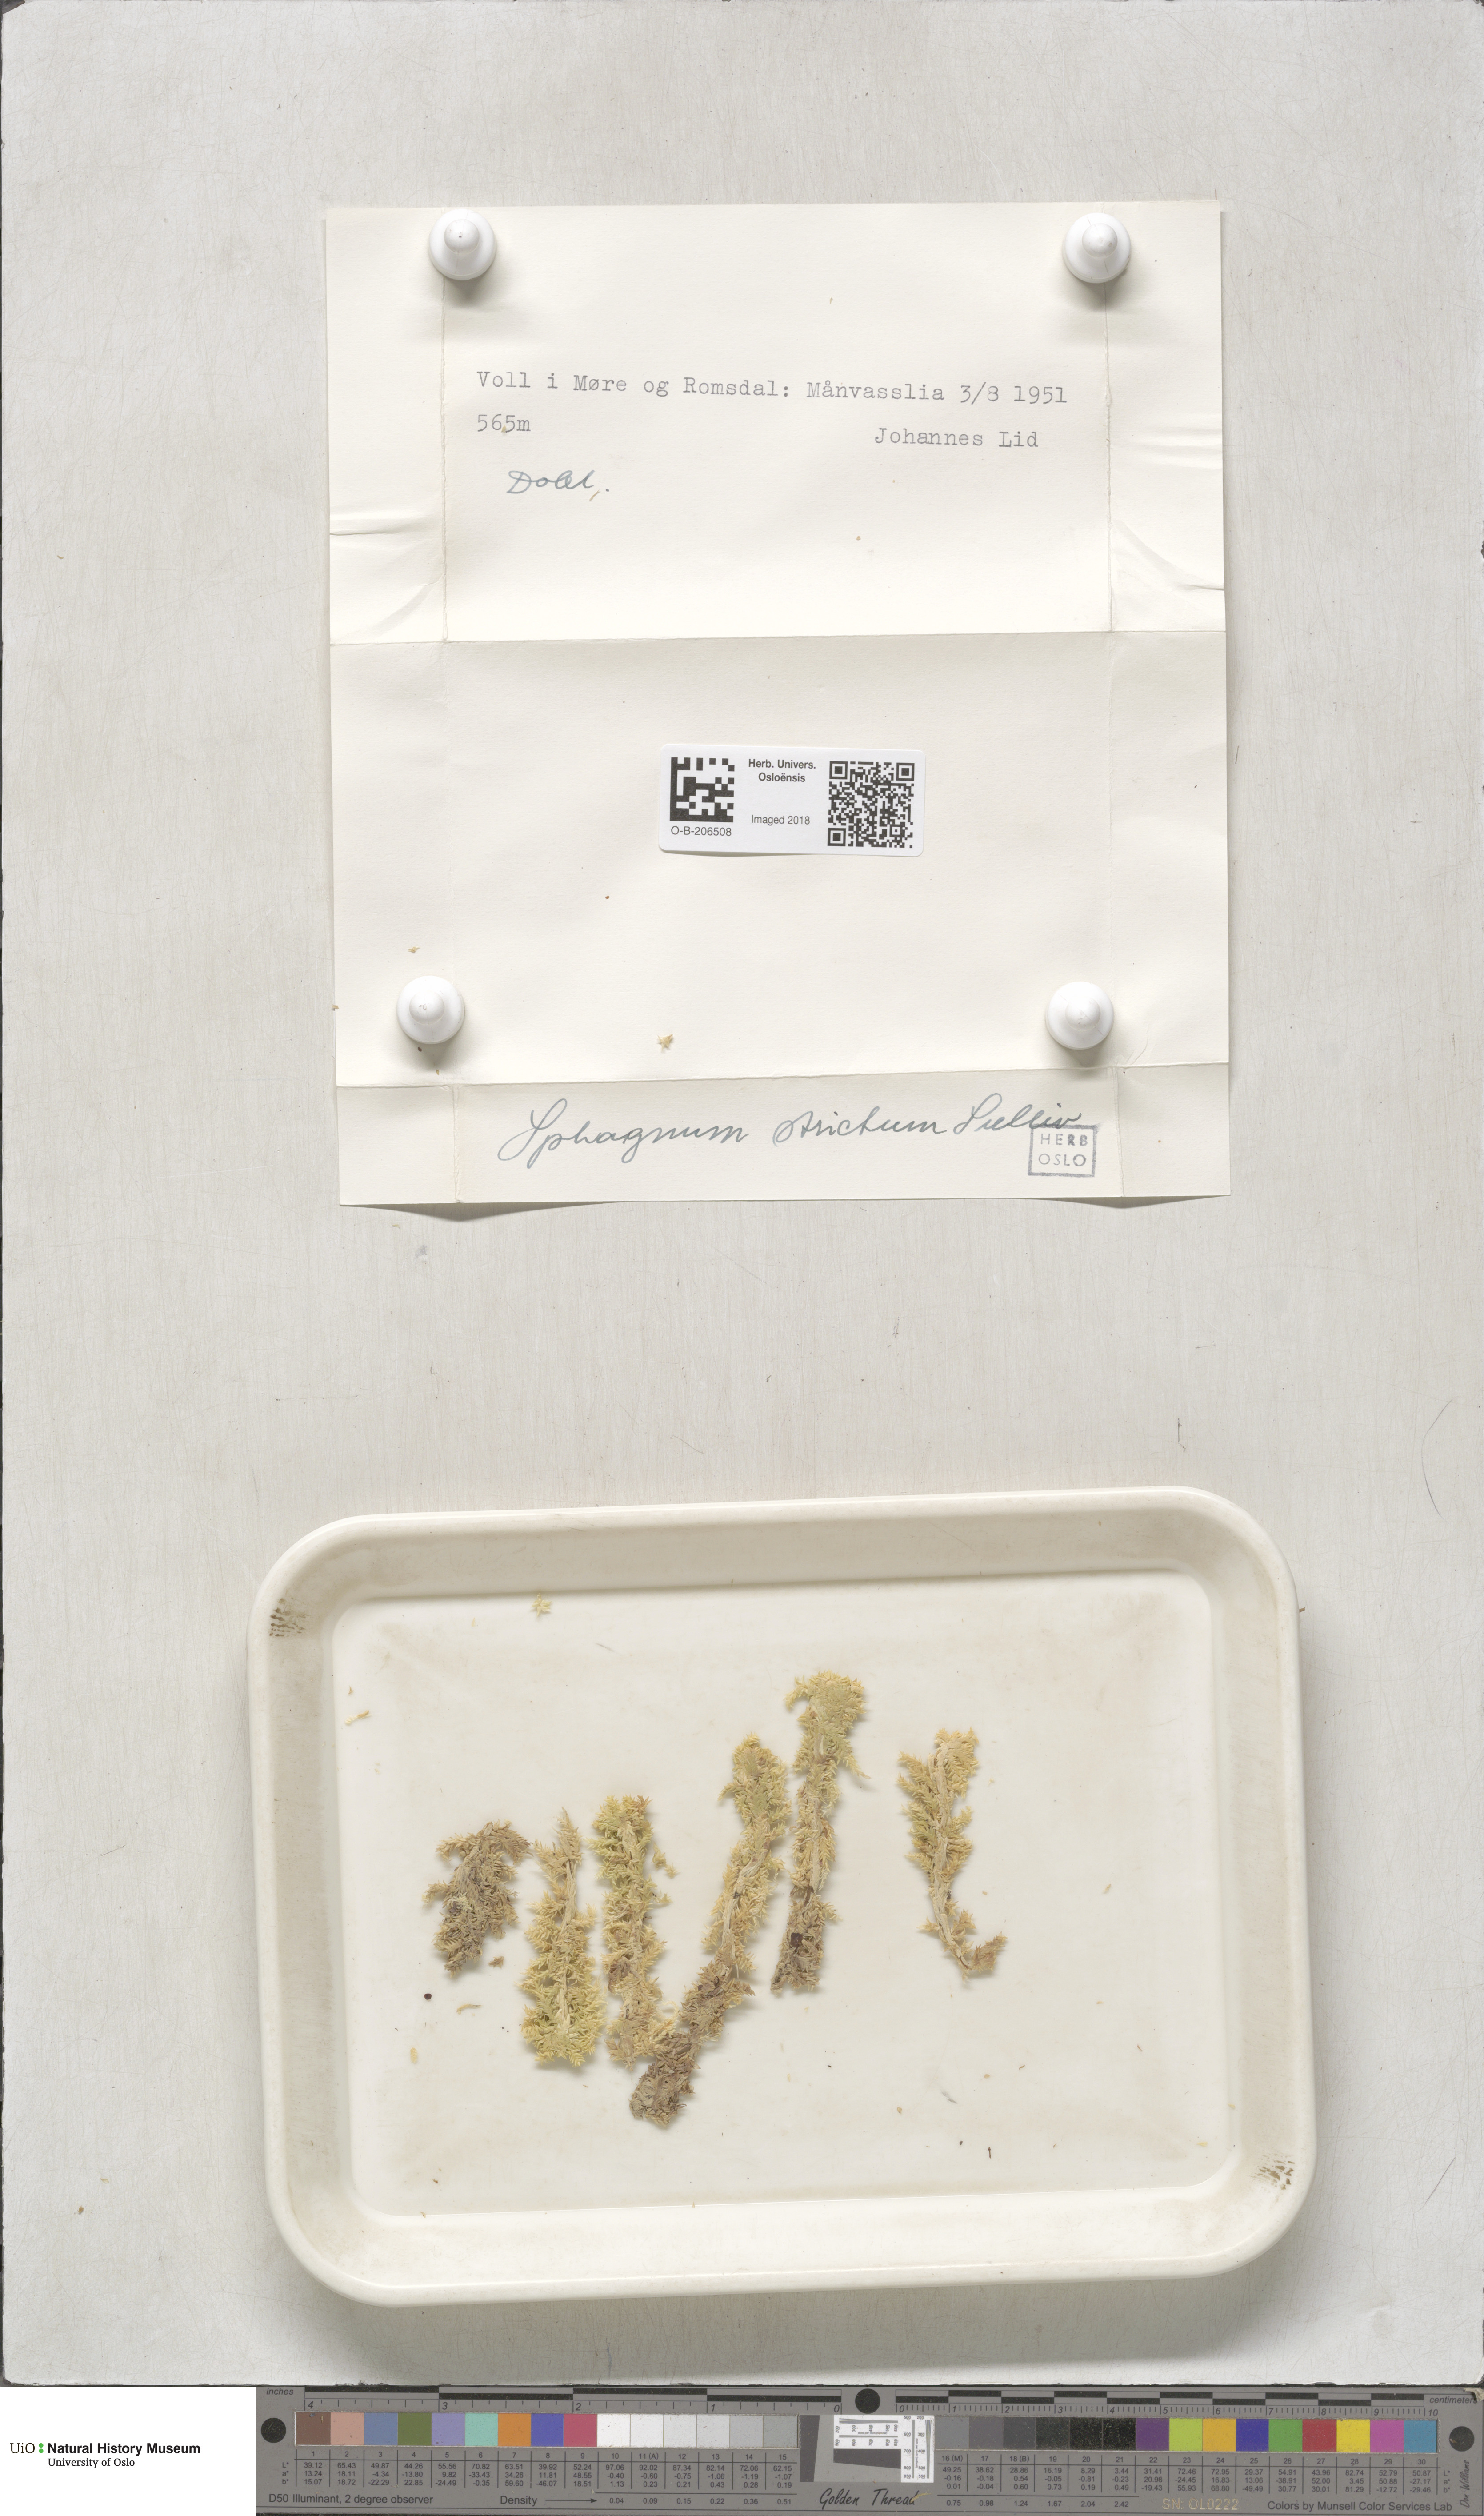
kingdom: Plantae
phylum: Bryophyta
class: Sphagnopsida
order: Sphagnales
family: Sphagnaceae
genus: Sphagnum
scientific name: Sphagnum strictum
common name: Pale bog-moss
